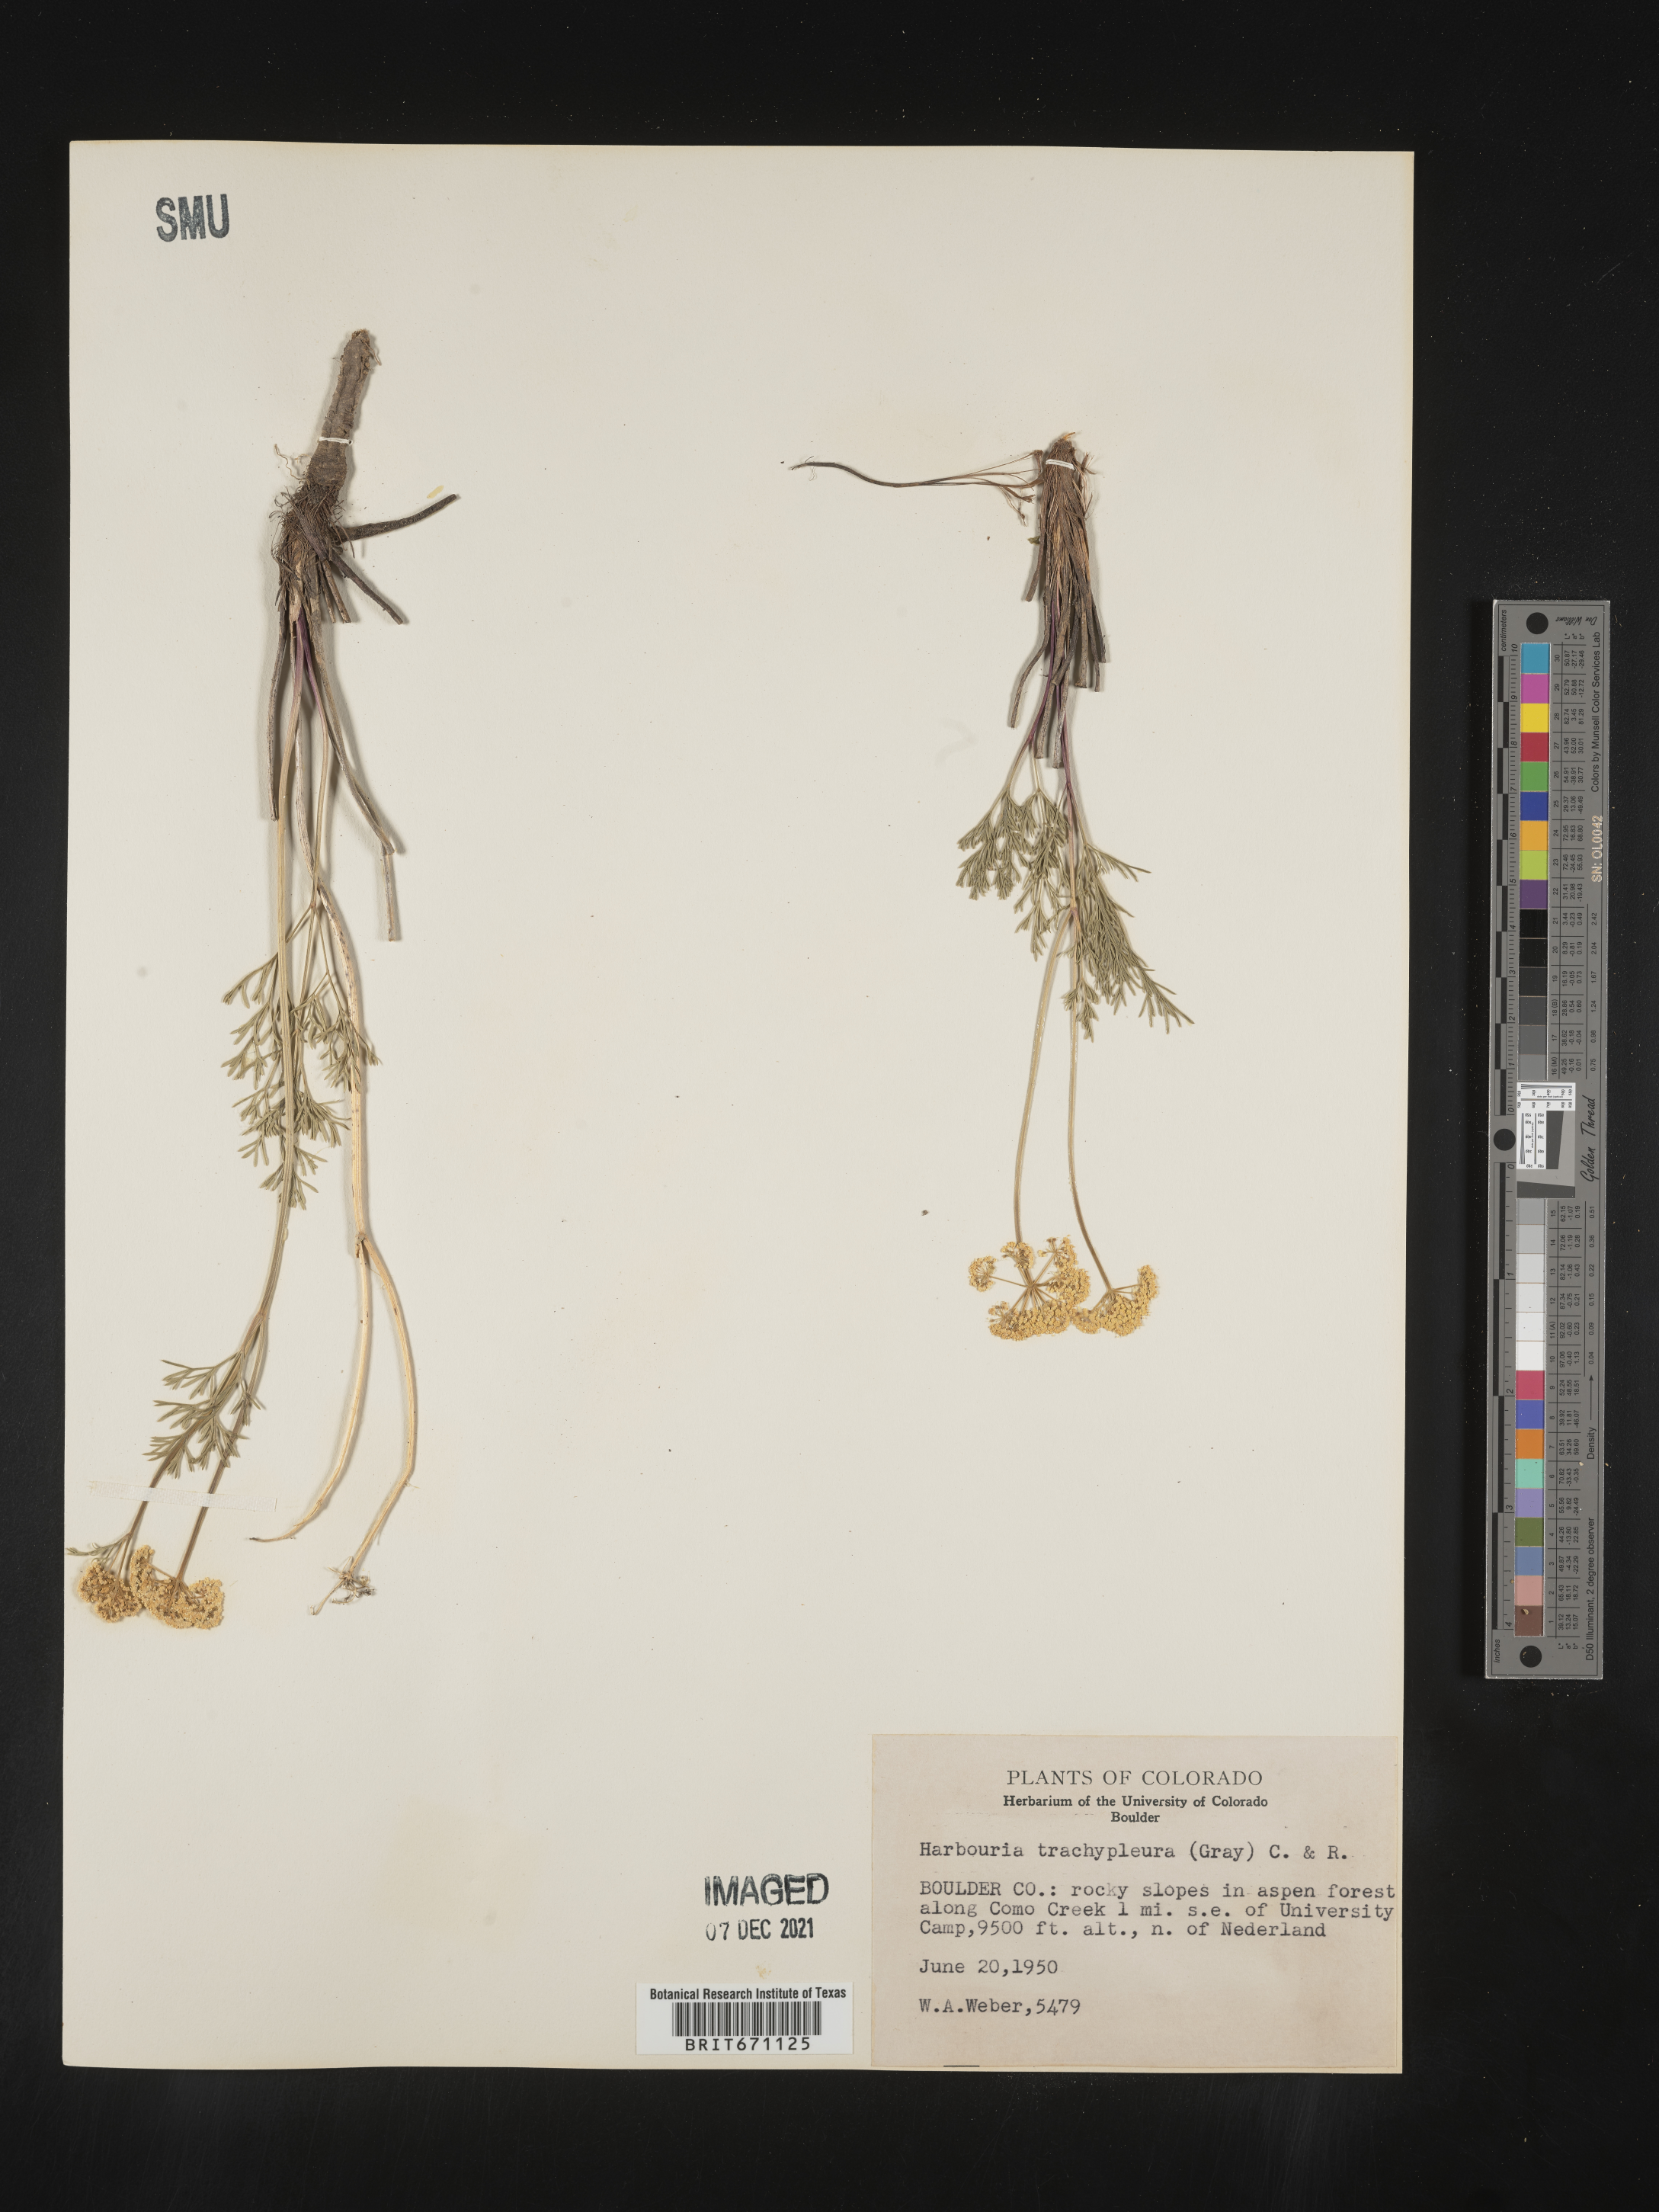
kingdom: Plantae
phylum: Tracheophyta
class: Magnoliopsida
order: Apiales
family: Apiaceae
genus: Harbouria
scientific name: Harbouria trachypleura
